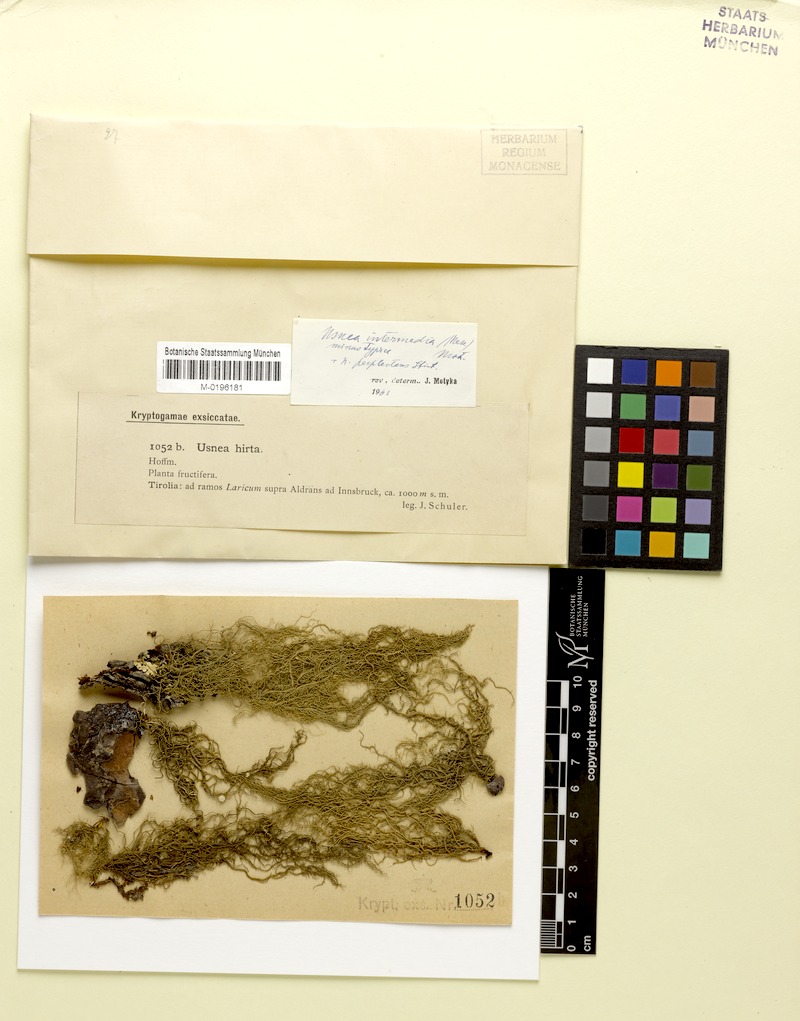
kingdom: Fungi
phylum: Ascomycota
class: Lecanoromycetes
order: Lecanorales
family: Parmeliaceae
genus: Usnea
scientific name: Usnea perplexans
